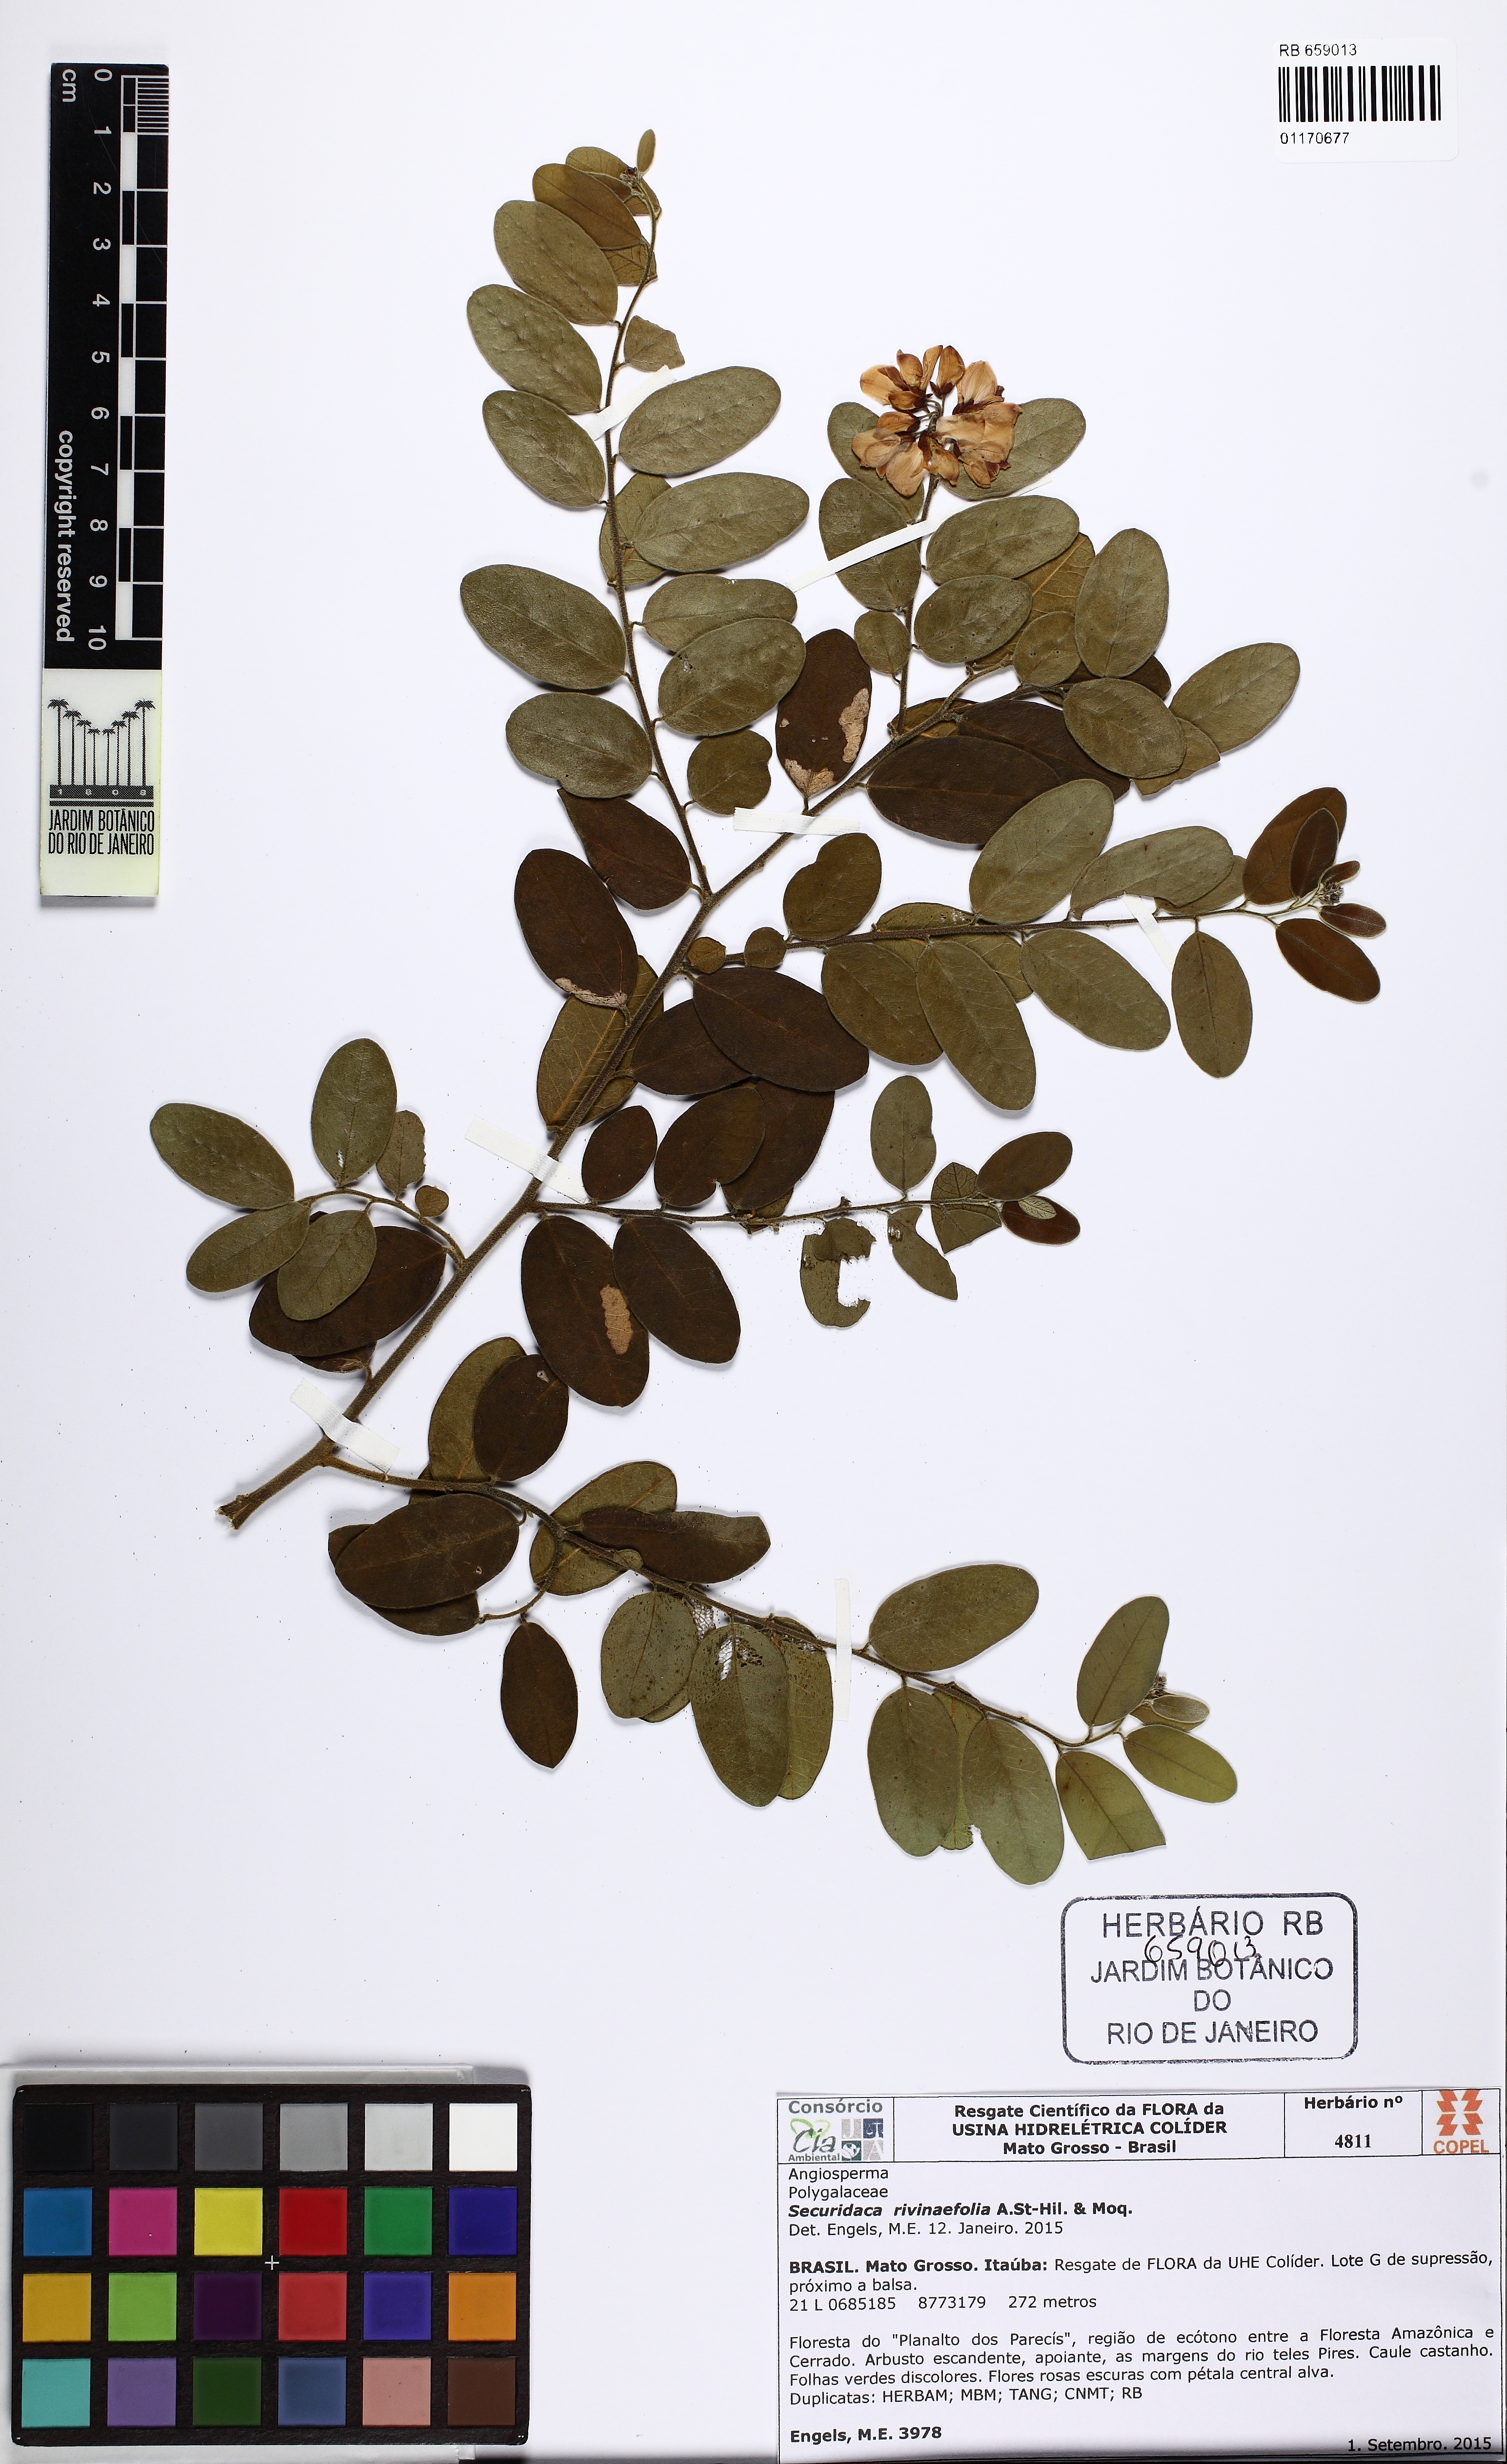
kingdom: Plantae
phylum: Tracheophyta
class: Magnoliopsida
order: Fabales
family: Polygalaceae
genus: Securidaca
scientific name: Securidaca rivinifolia
